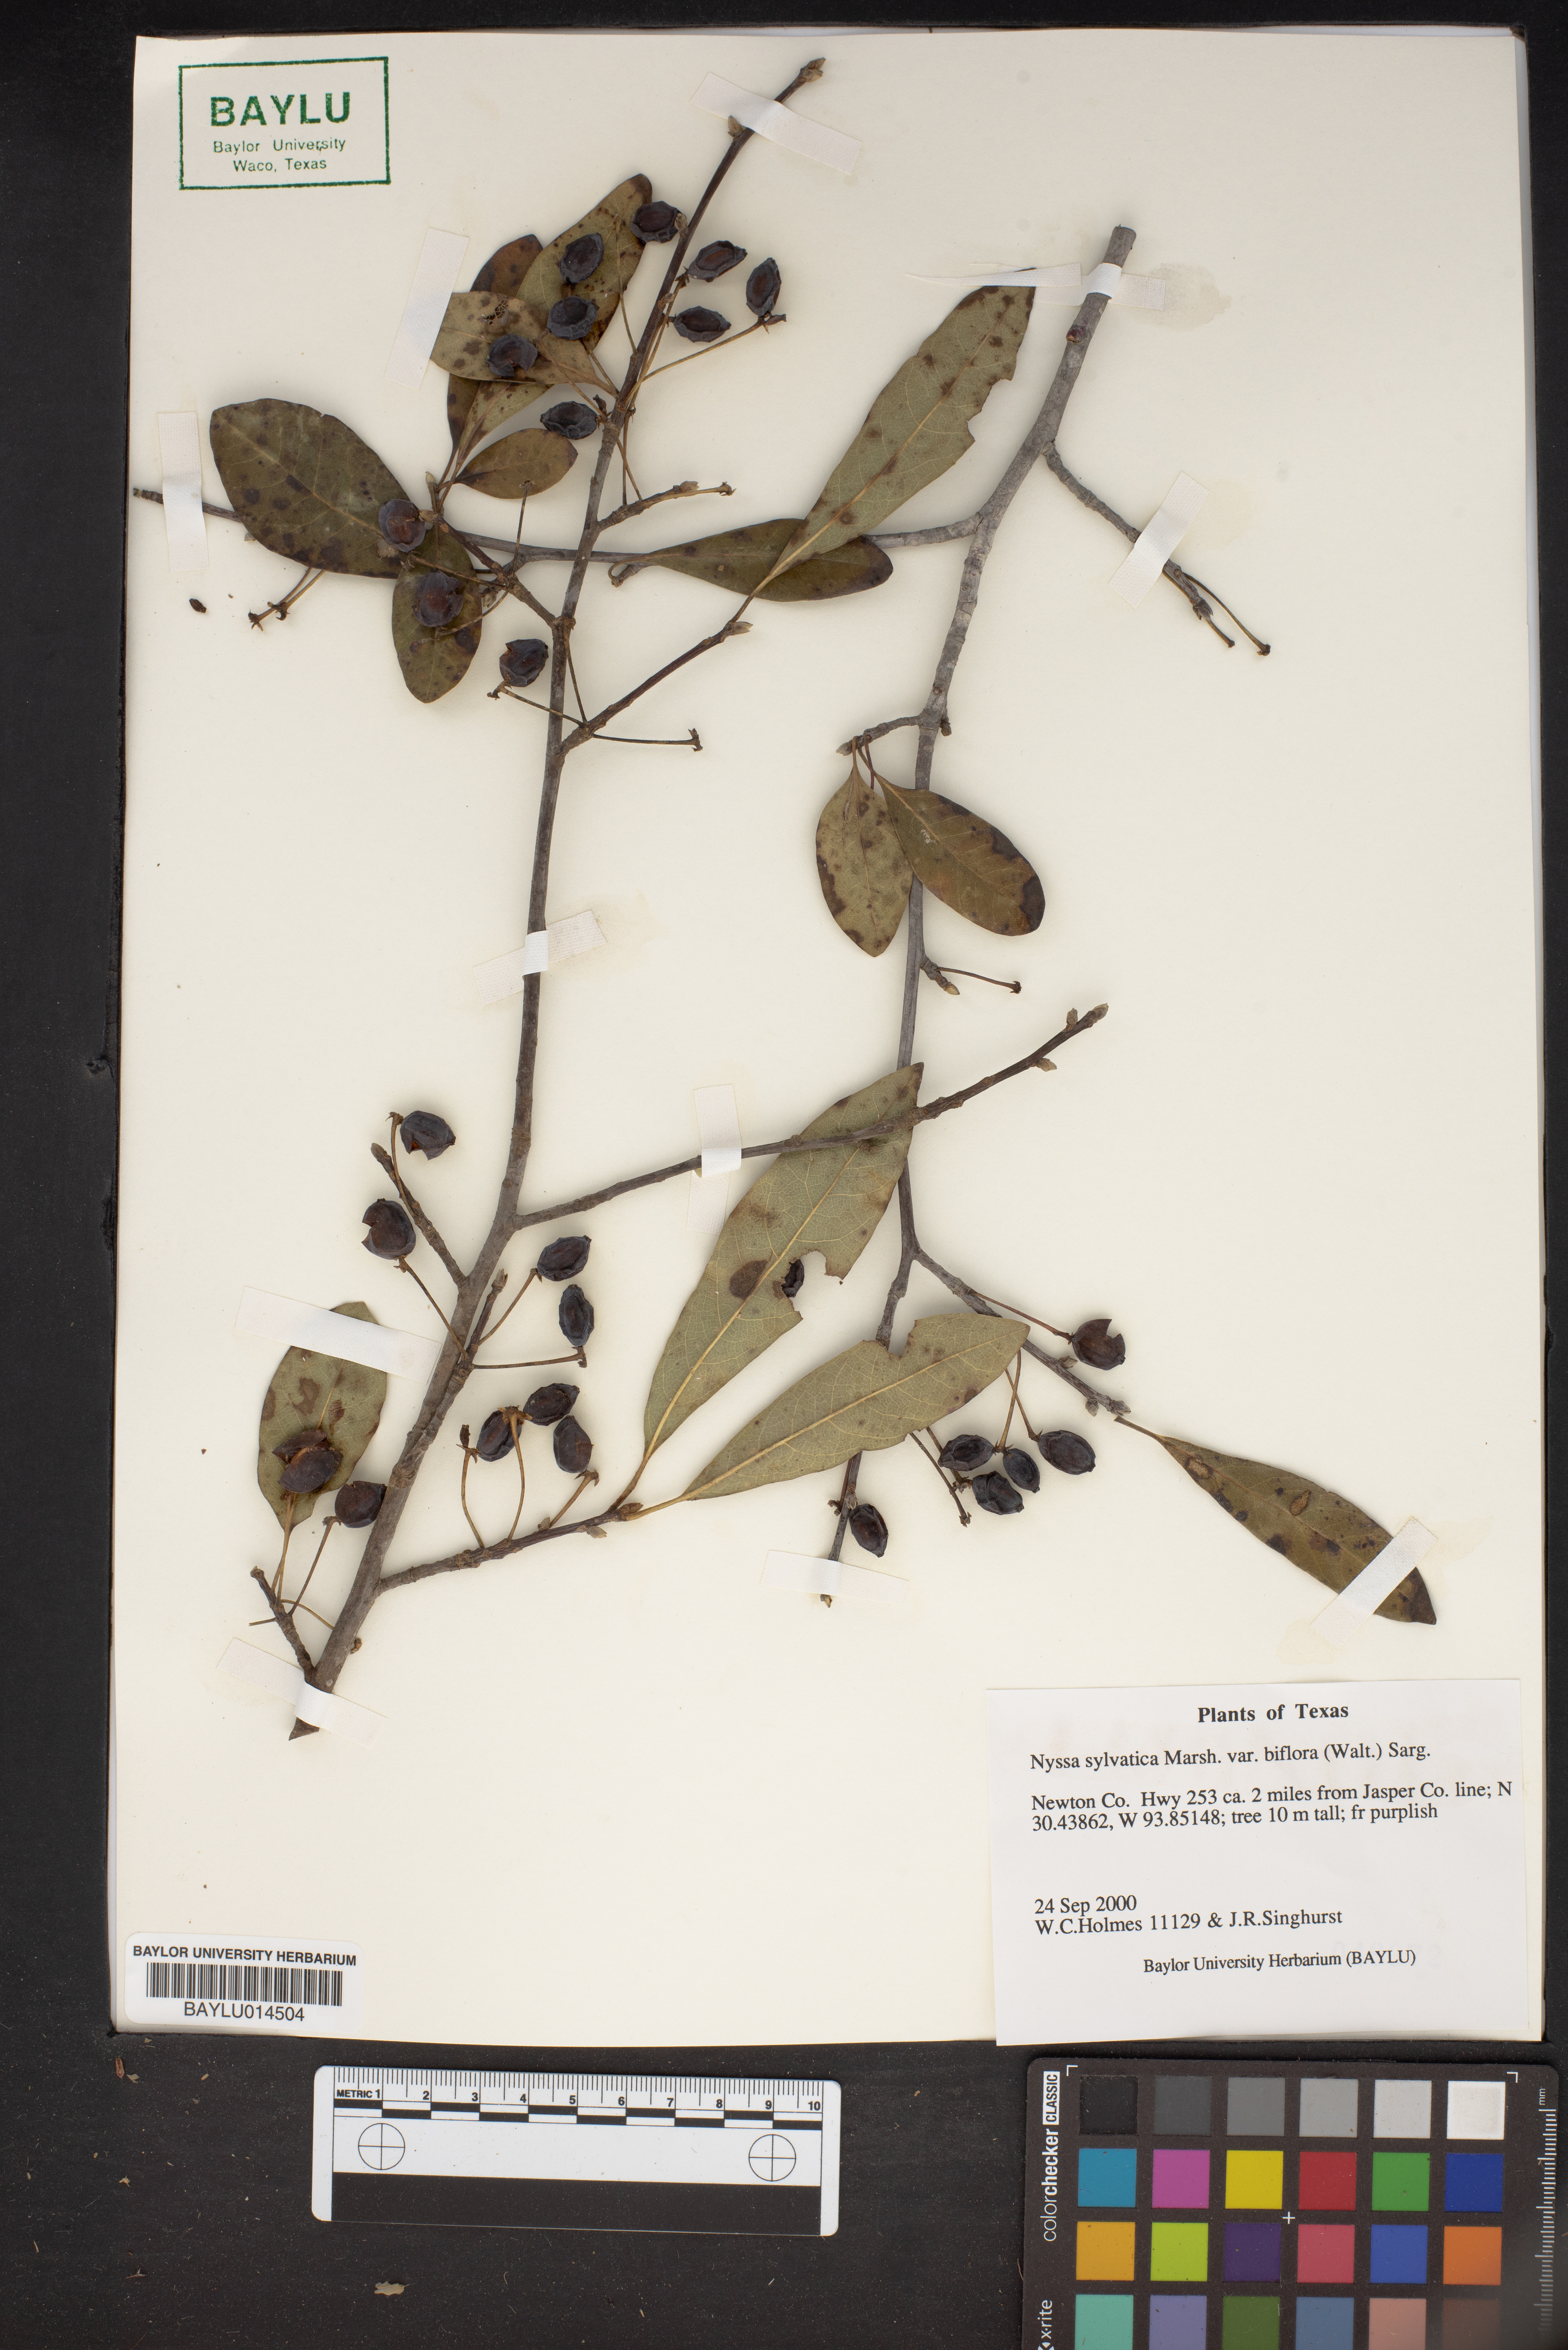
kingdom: Plantae
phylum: Tracheophyta
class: Magnoliopsida
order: Cornales
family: Nyssaceae
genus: Nyssa
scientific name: Nyssa biflora
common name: Swamp blackgum
